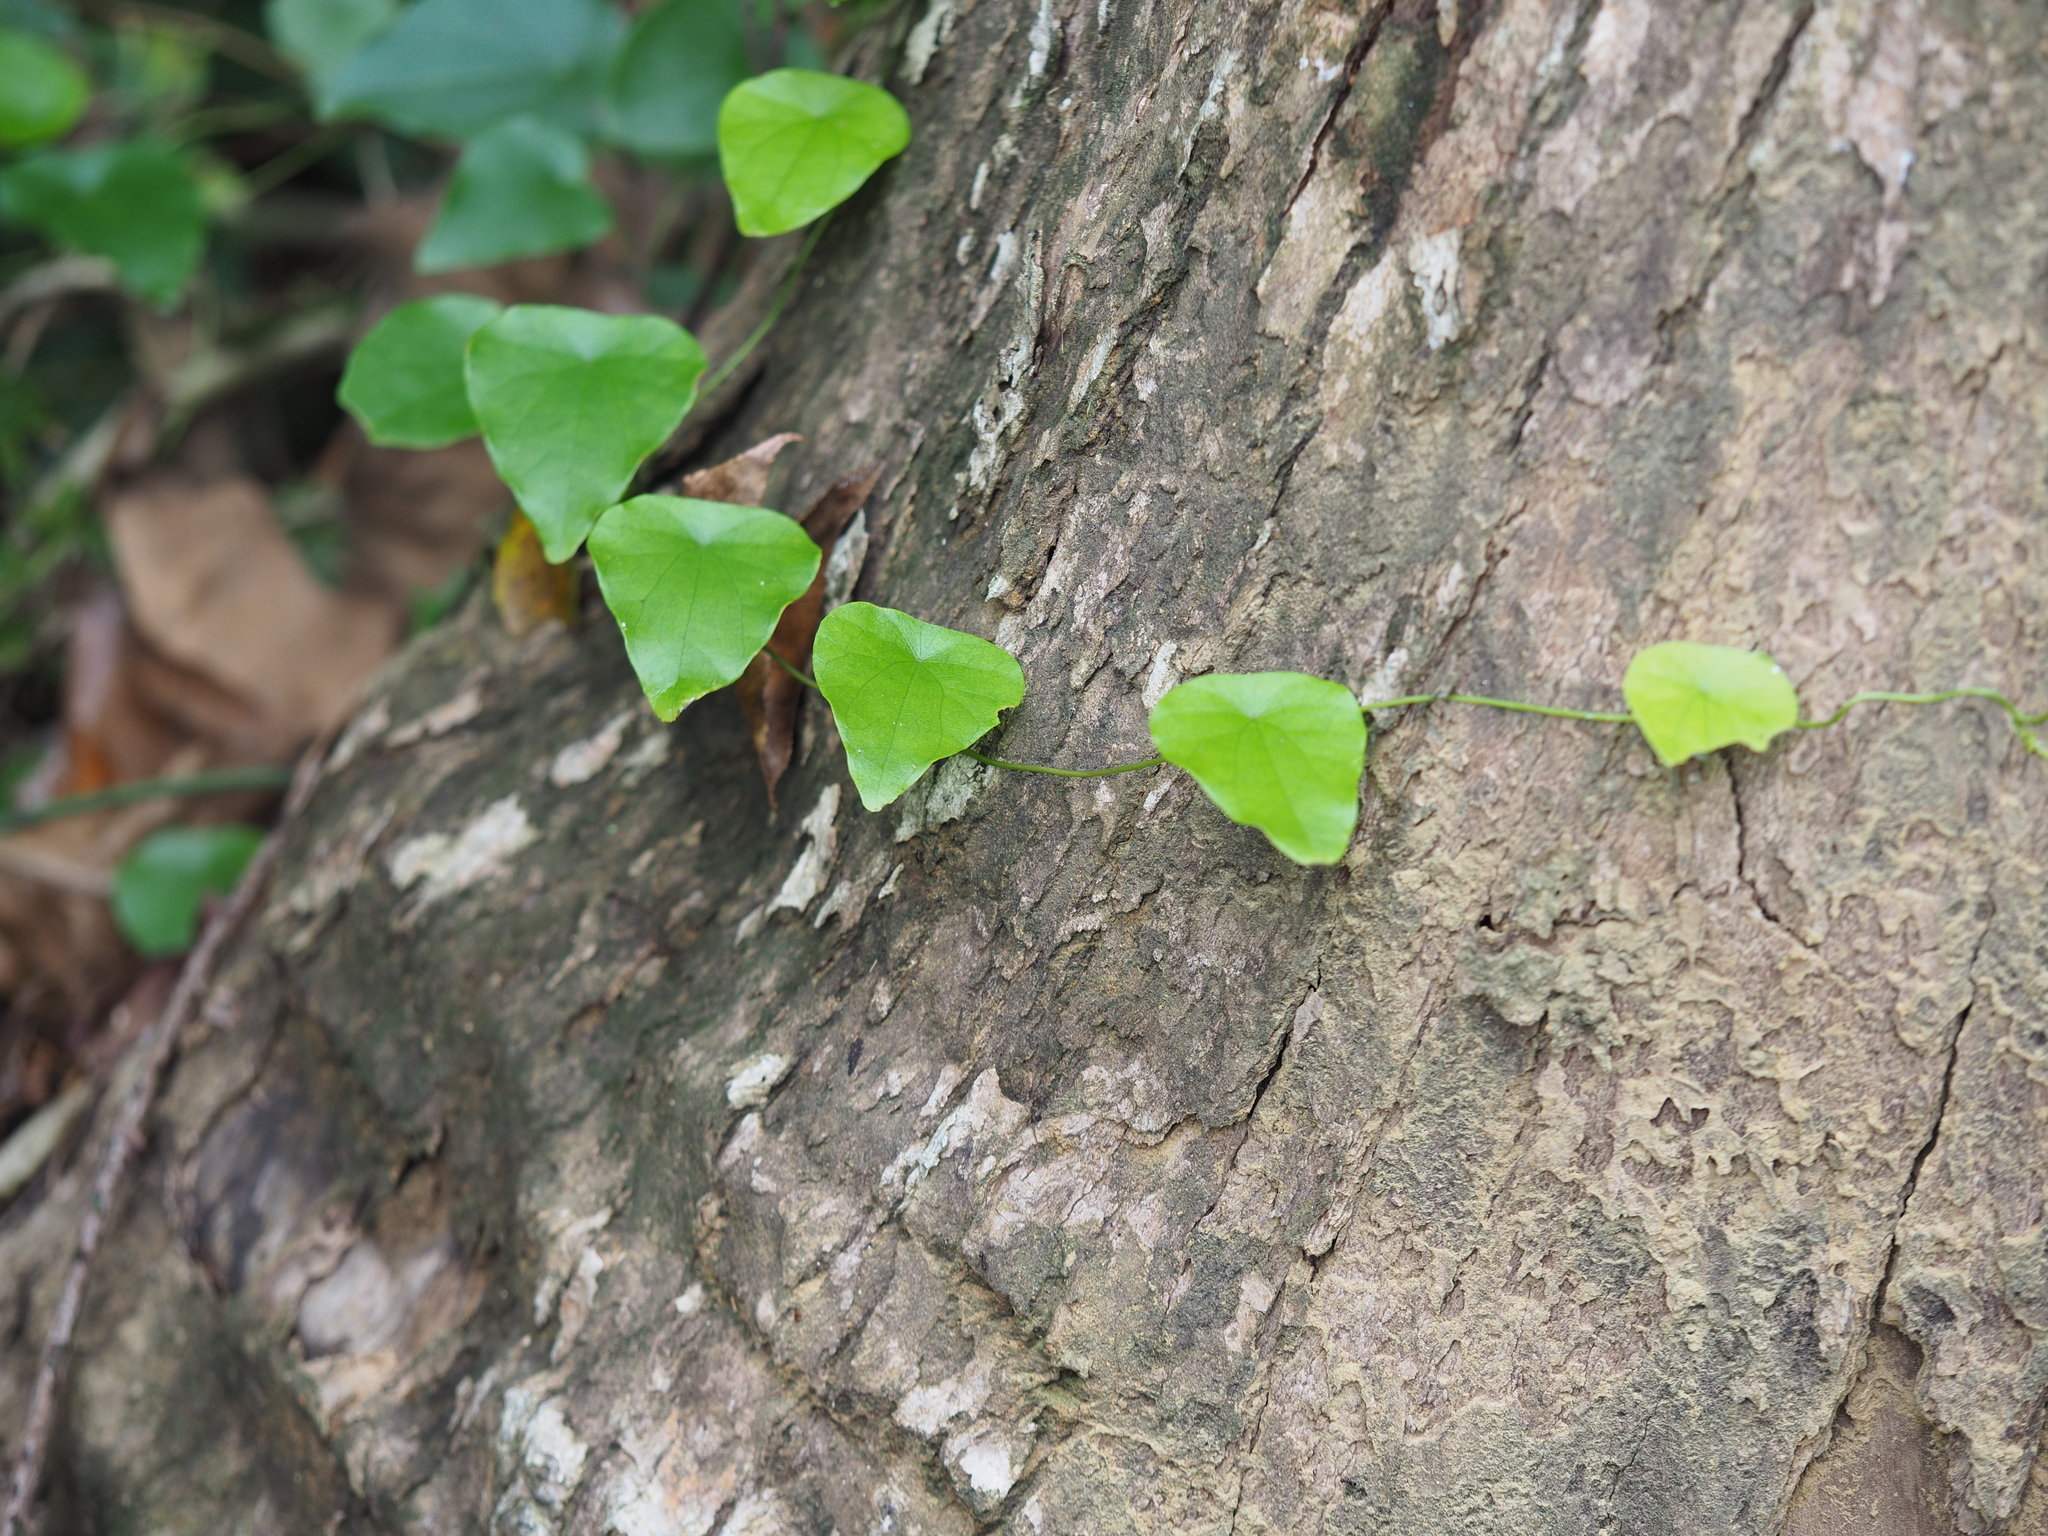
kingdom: Plantae
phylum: Tracheophyta
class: Magnoliopsida
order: Ranunculales
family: Menispermaceae
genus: Stephania
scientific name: Stephania japonica
